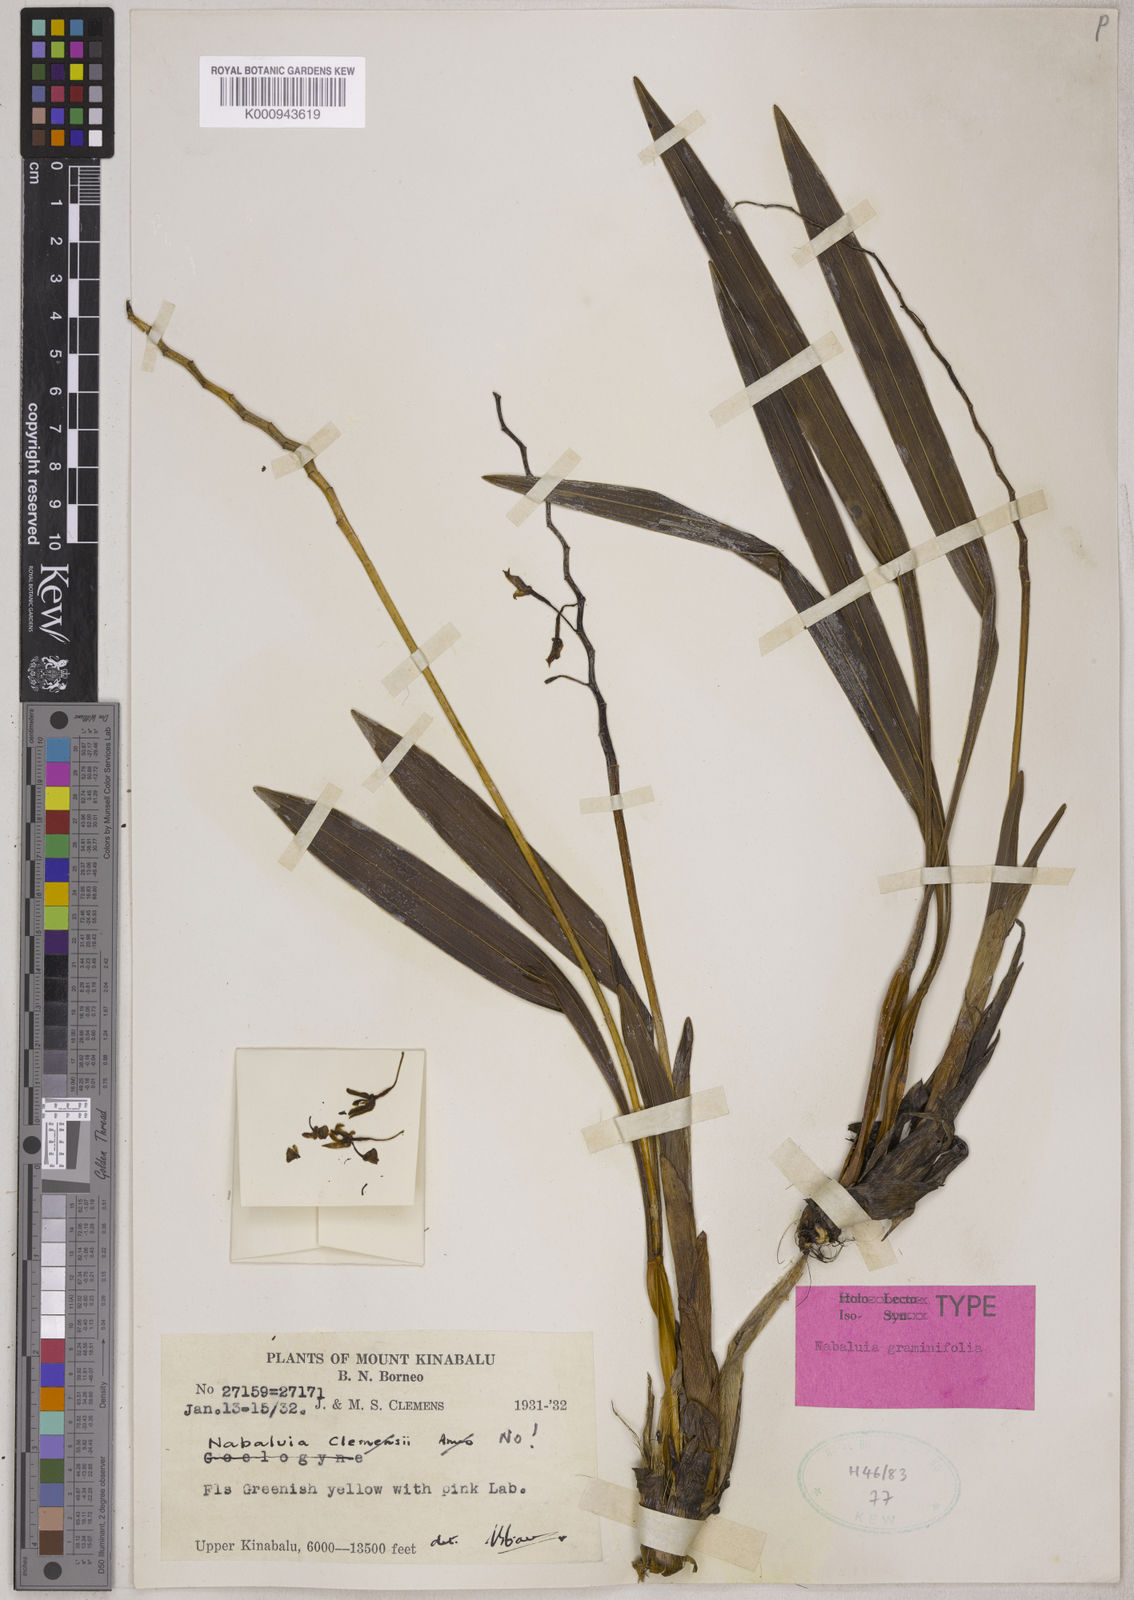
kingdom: Plantae
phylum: Tracheophyta
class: Liliopsida
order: Asparagales
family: Orchidaceae
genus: Coelogyne
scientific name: Coelogyne blumea
